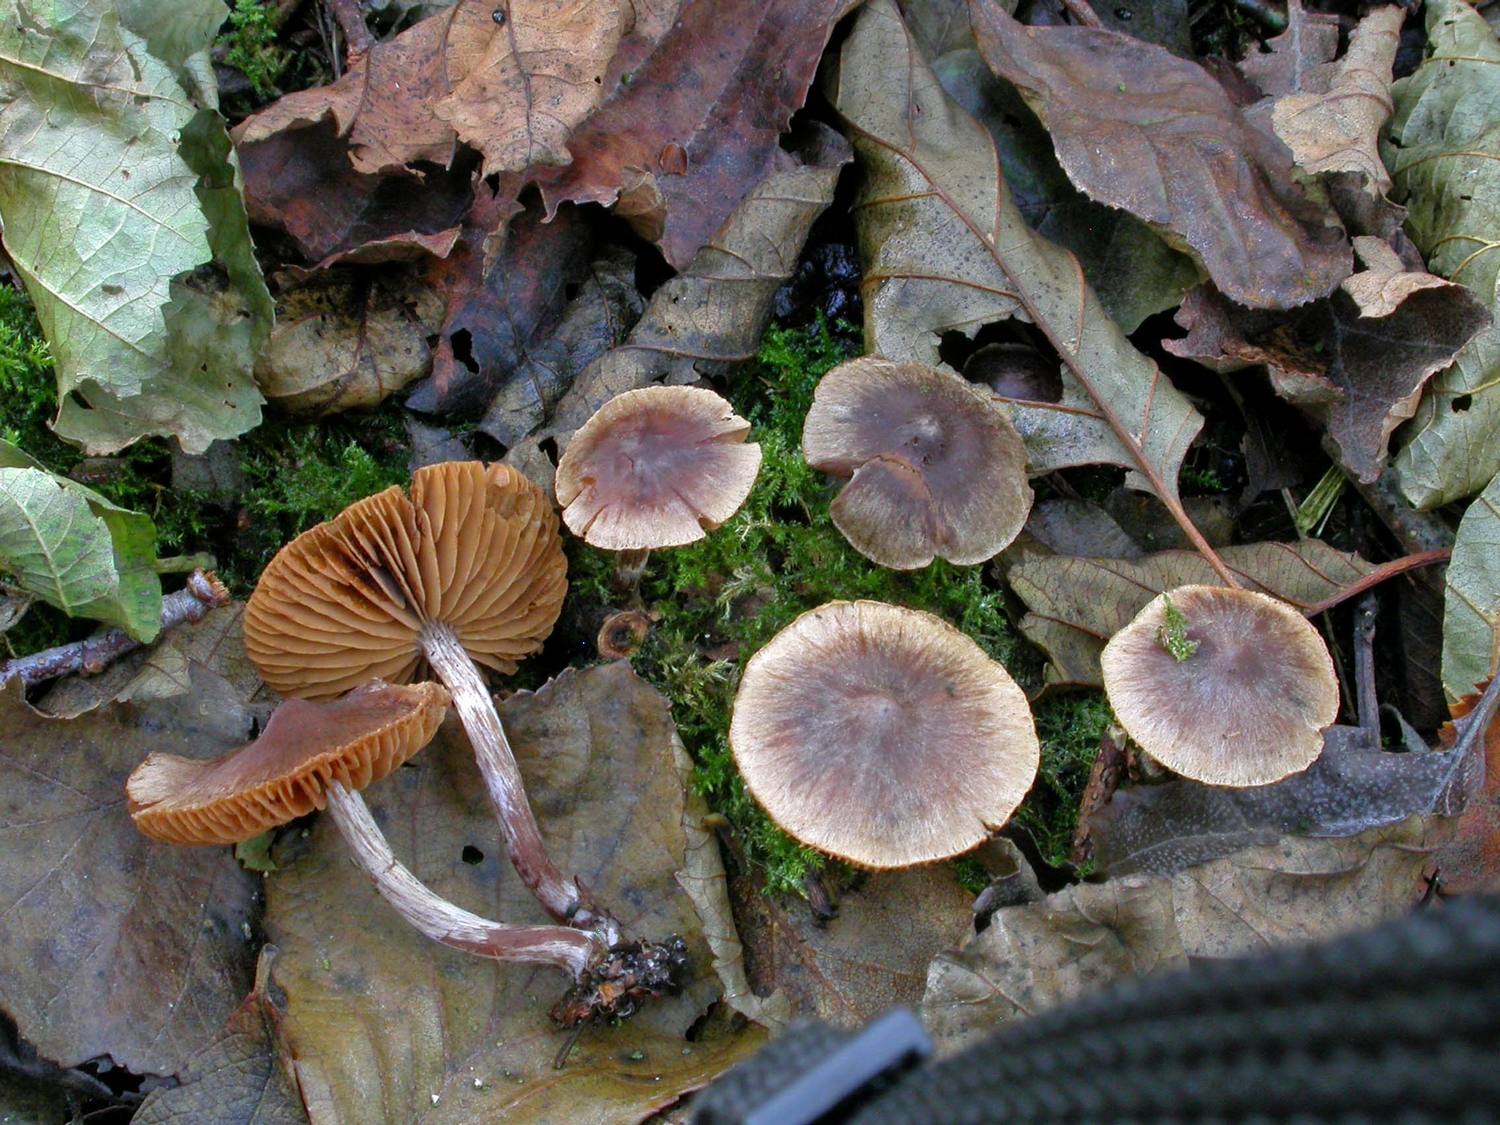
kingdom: Fungi
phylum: Basidiomycota
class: Agaricomycetes
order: Agaricales
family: Cortinariaceae
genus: Cortinarius
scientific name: Cortinarius umbrinolens
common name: mørk slørhat
